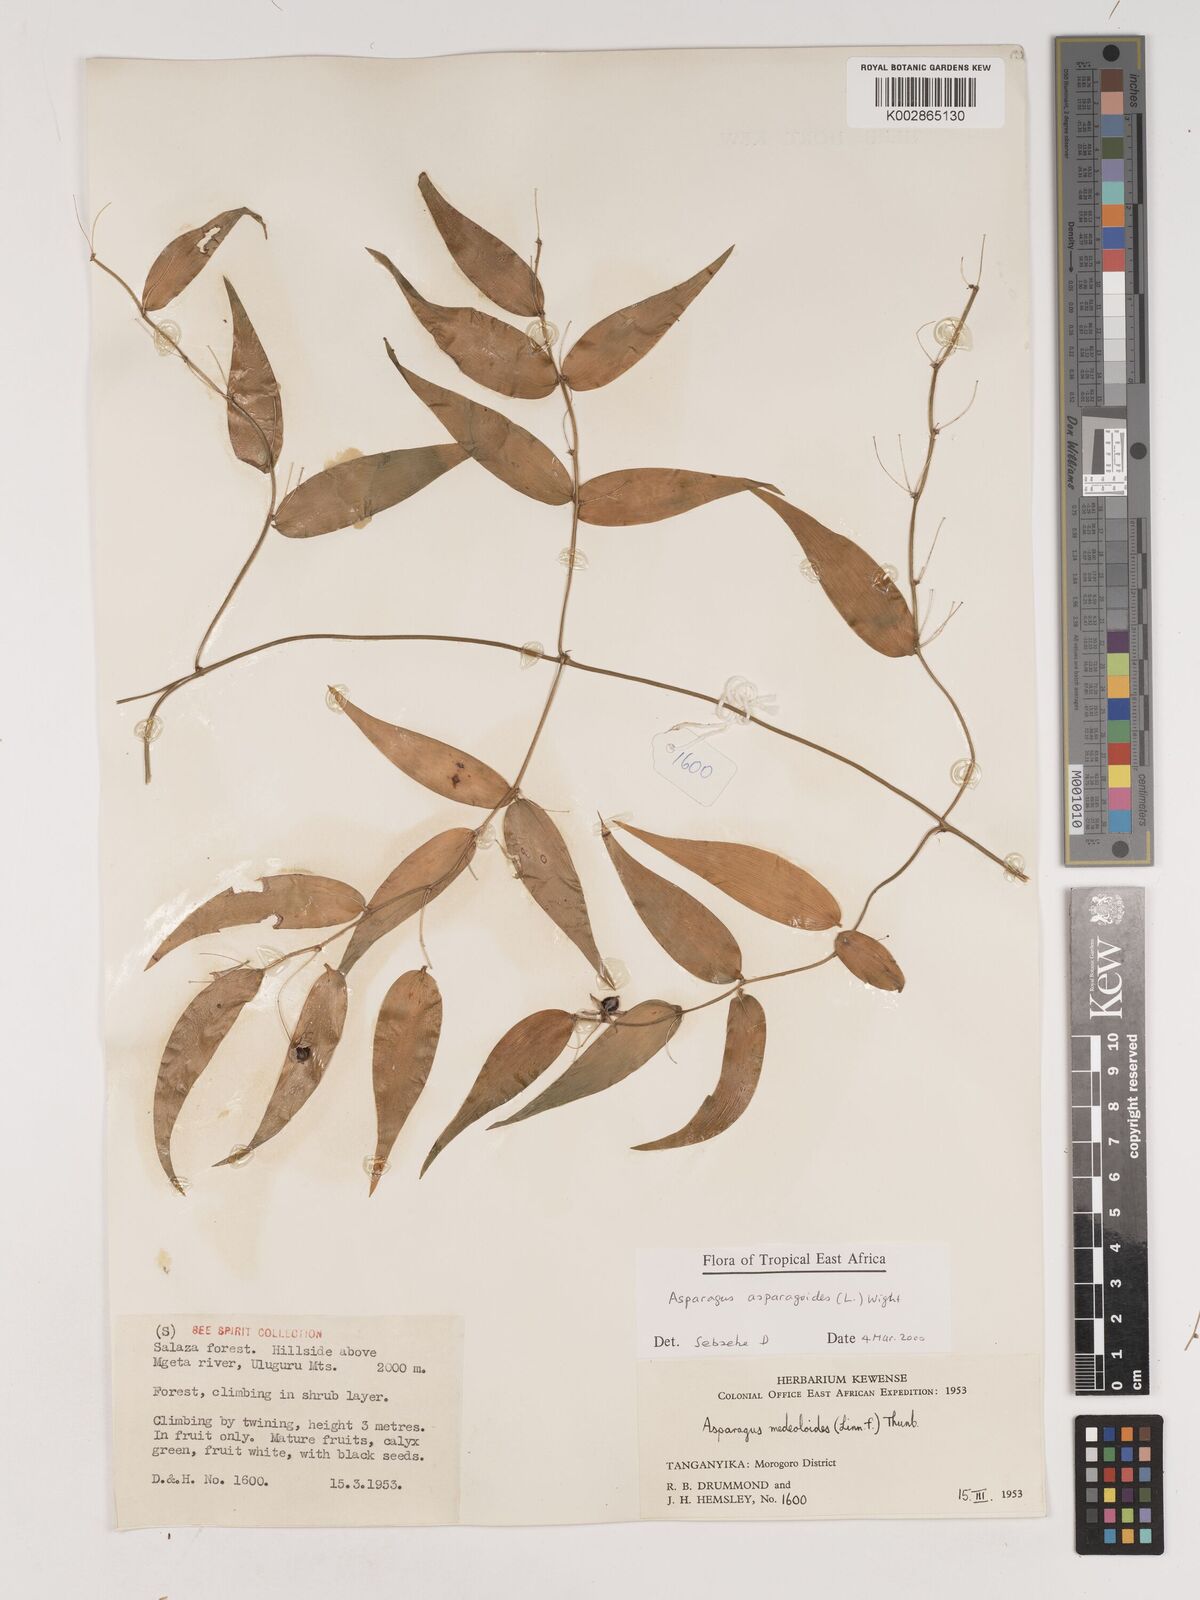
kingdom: Plantae
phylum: Tracheophyta
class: Liliopsida
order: Asparagales
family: Asparagaceae
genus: Asparagus
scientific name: Asparagus asparagoides
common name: African asparagus fern
